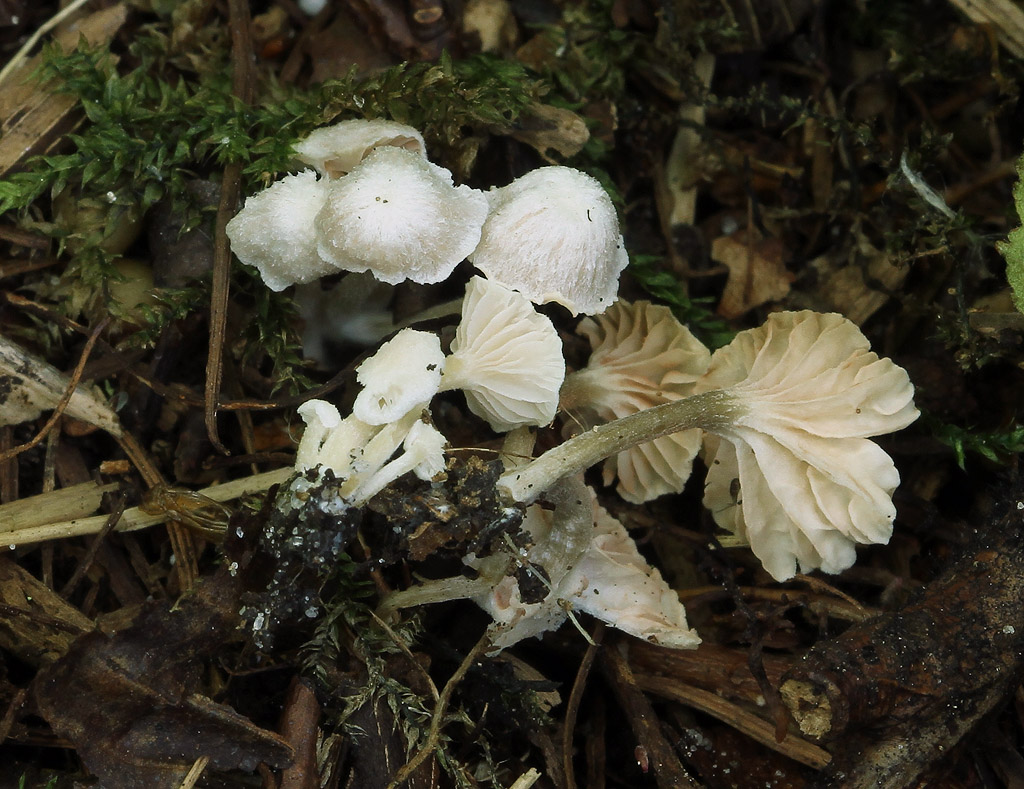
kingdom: Fungi
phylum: Basidiomycota
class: Agaricomycetes
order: Agaricales
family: Entolomataceae
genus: Entoloma
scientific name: Entoloma cephalotrichum
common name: hvidhåret rødblad
